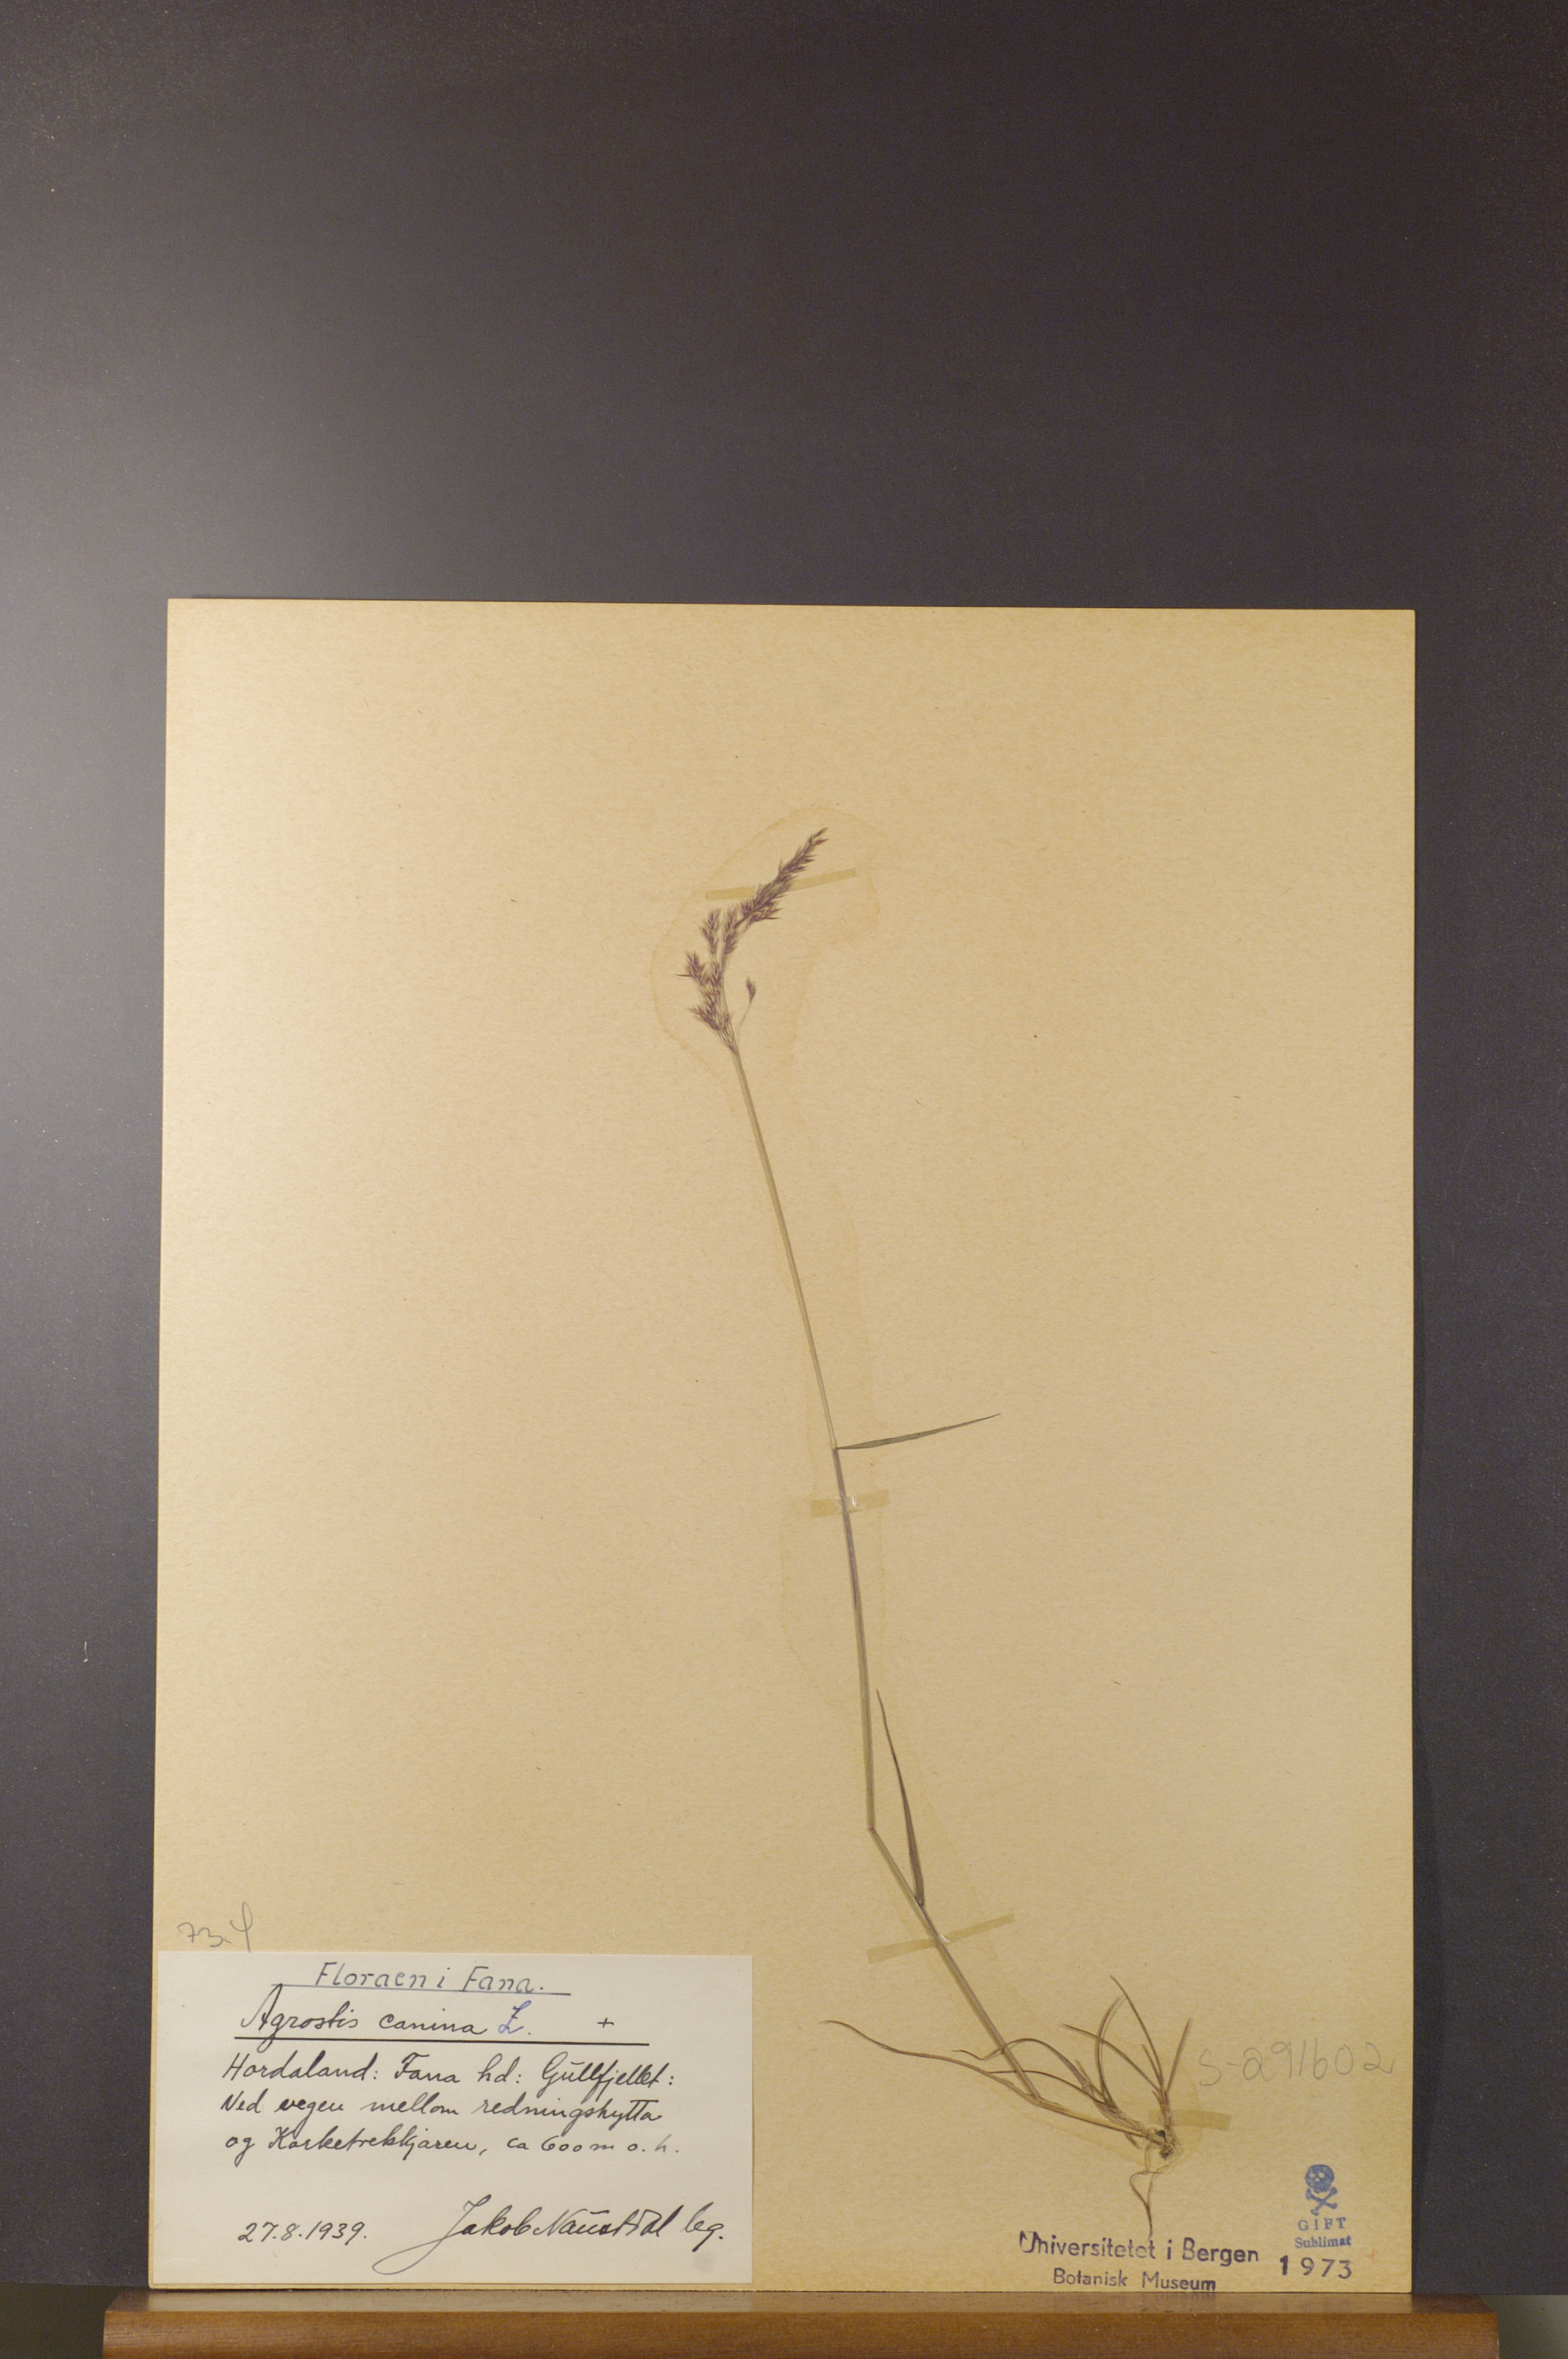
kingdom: Plantae
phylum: Tracheophyta
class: Liliopsida
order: Poales
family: Poaceae
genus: Agrostis
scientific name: Agrostis canina
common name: Velvet bent
